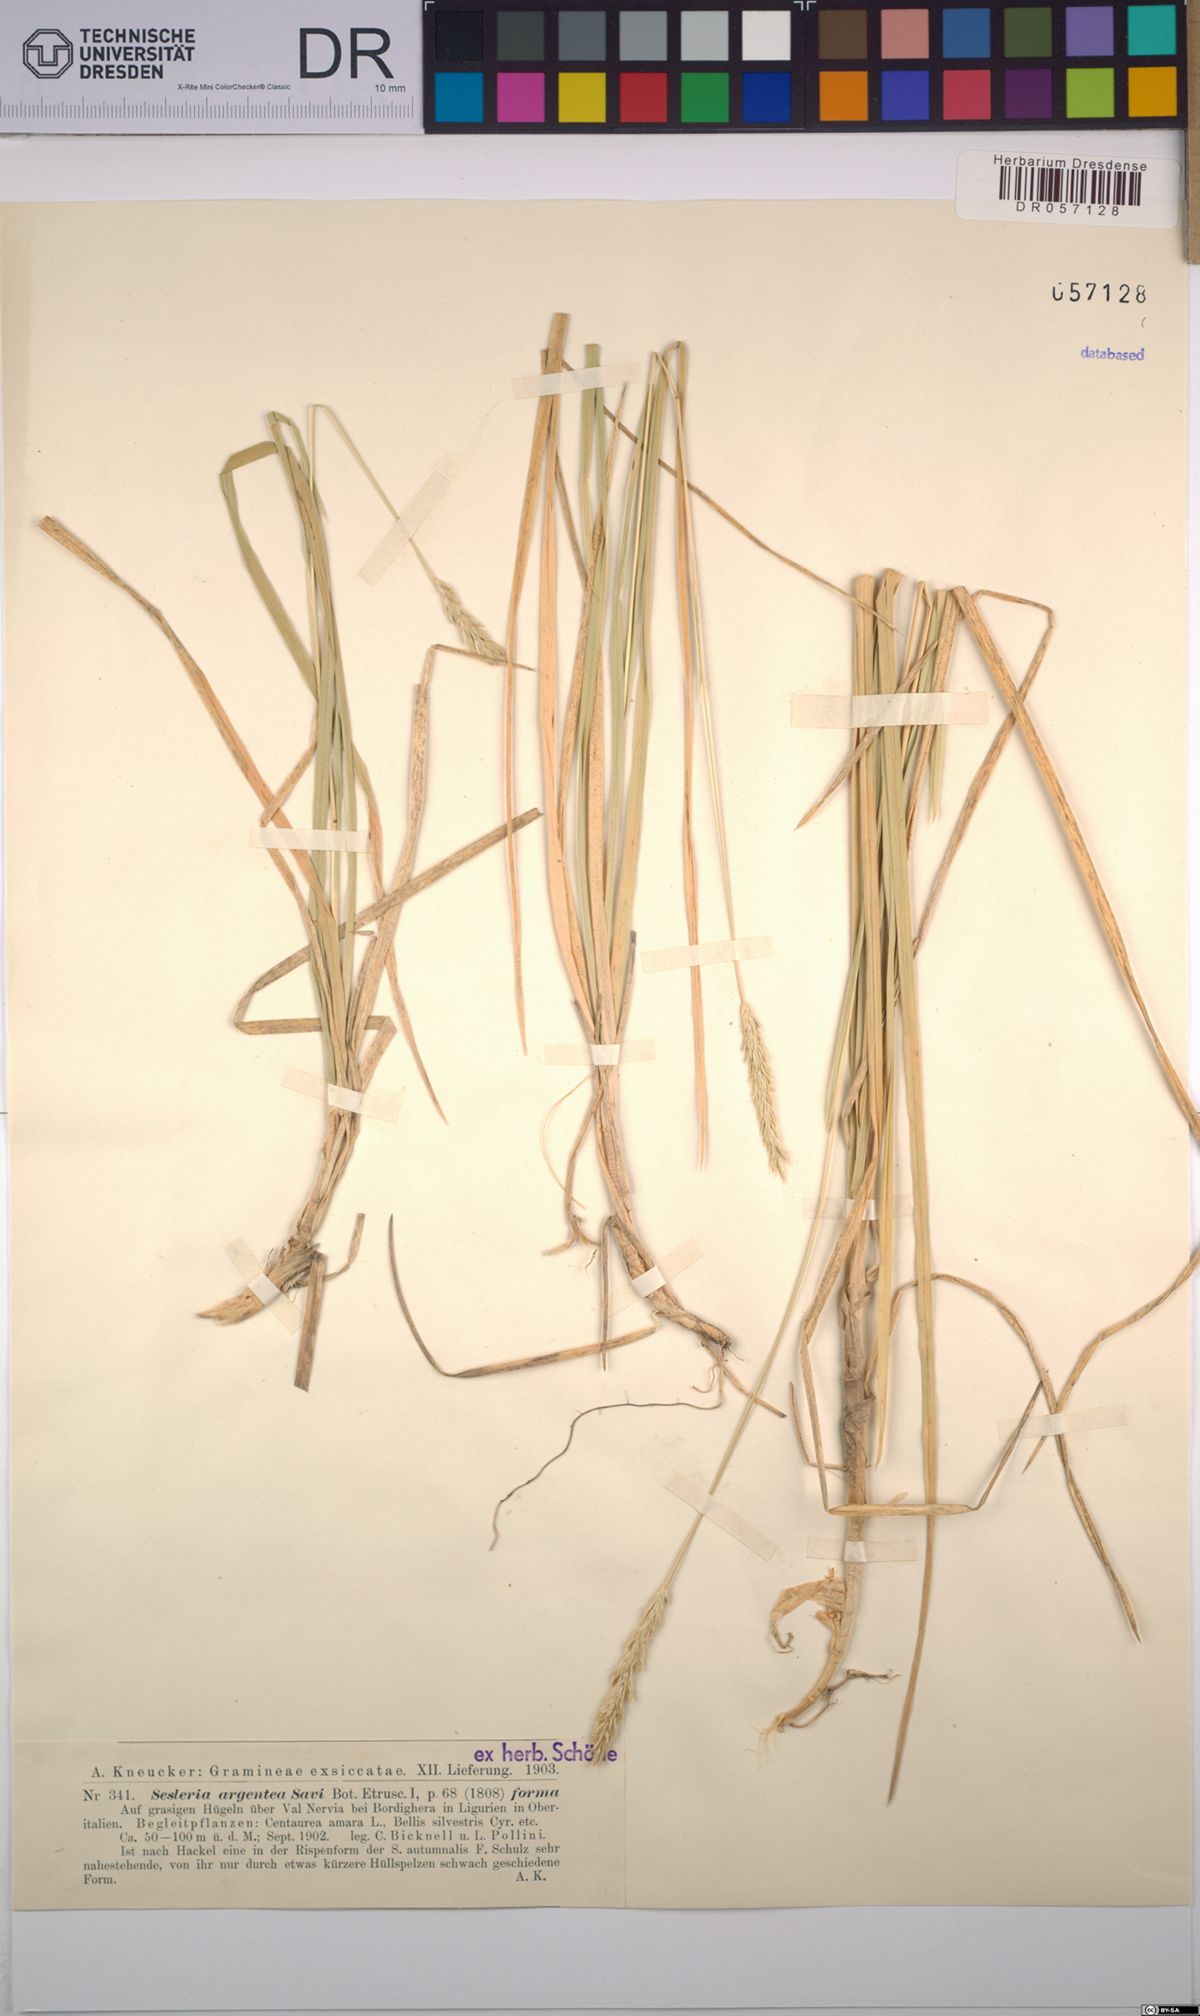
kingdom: Plantae
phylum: Tracheophyta
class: Liliopsida
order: Poales
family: Poaceae
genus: Sesleria
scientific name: Sesleria argentea
